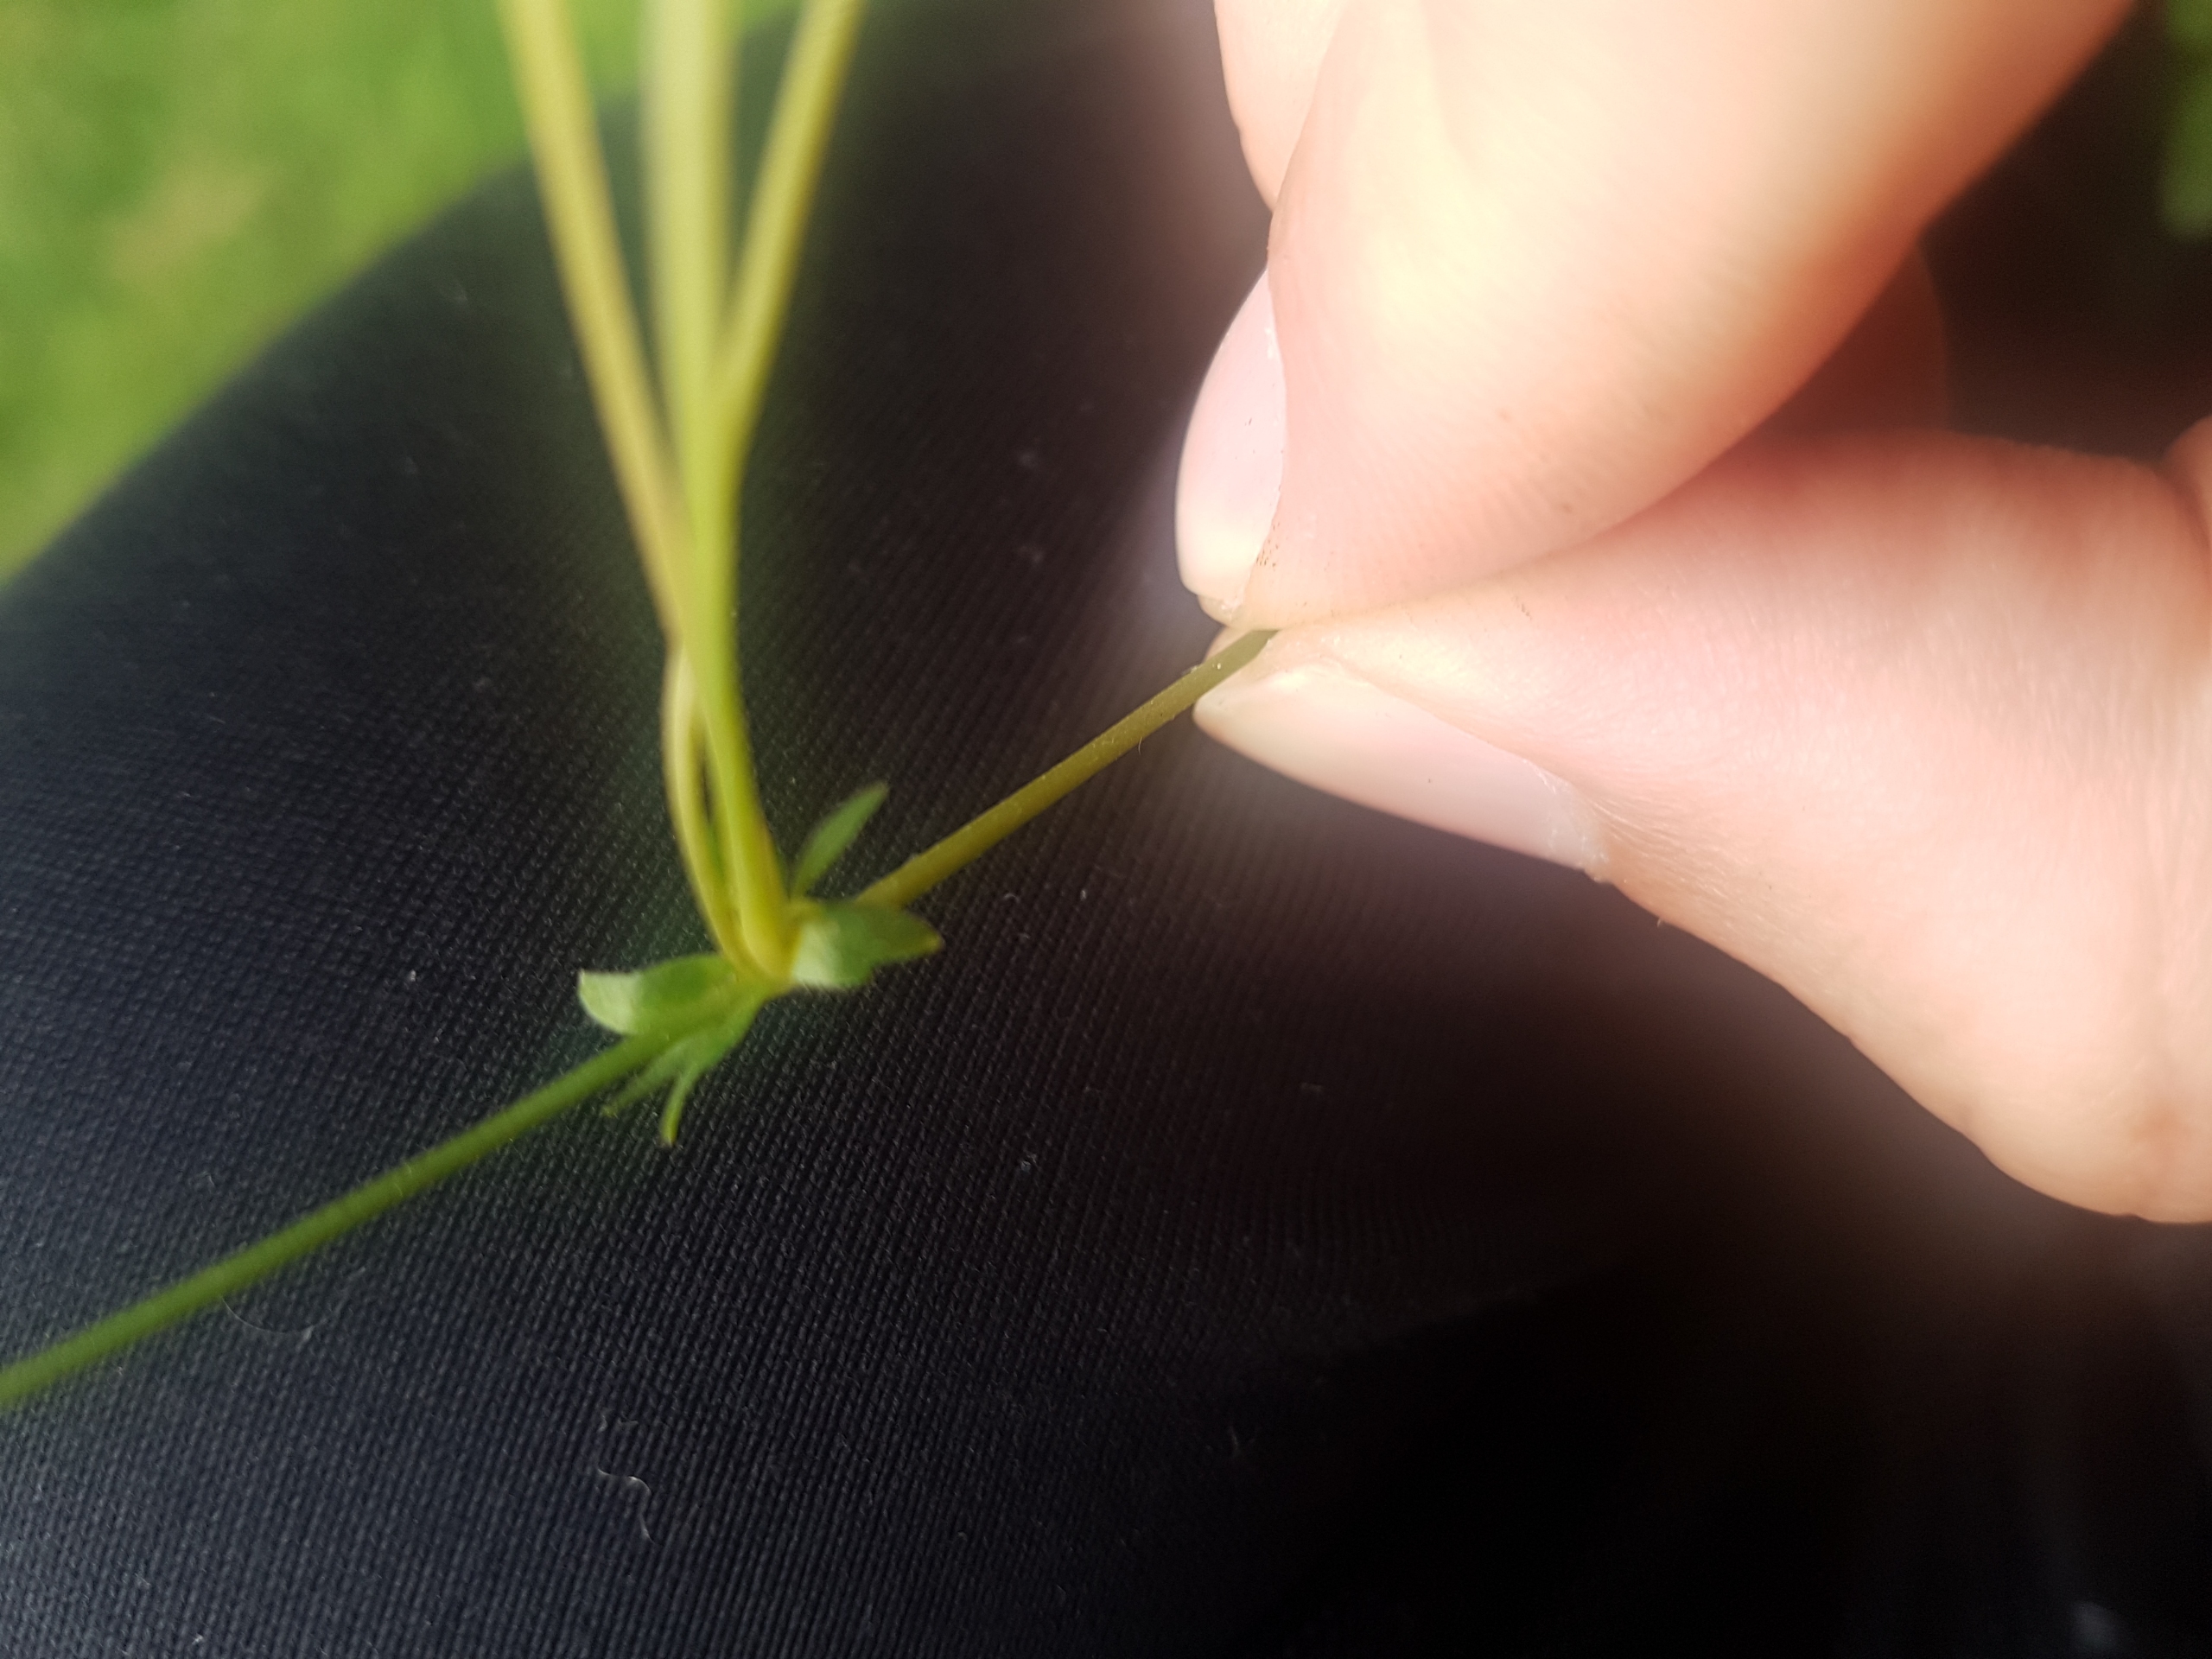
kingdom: Plantae
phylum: Tracheophyta
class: Magnoliopsida
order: Rosales
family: Rosaceae
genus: Potentilla
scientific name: Potentilla reptans
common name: Krybende potentil
